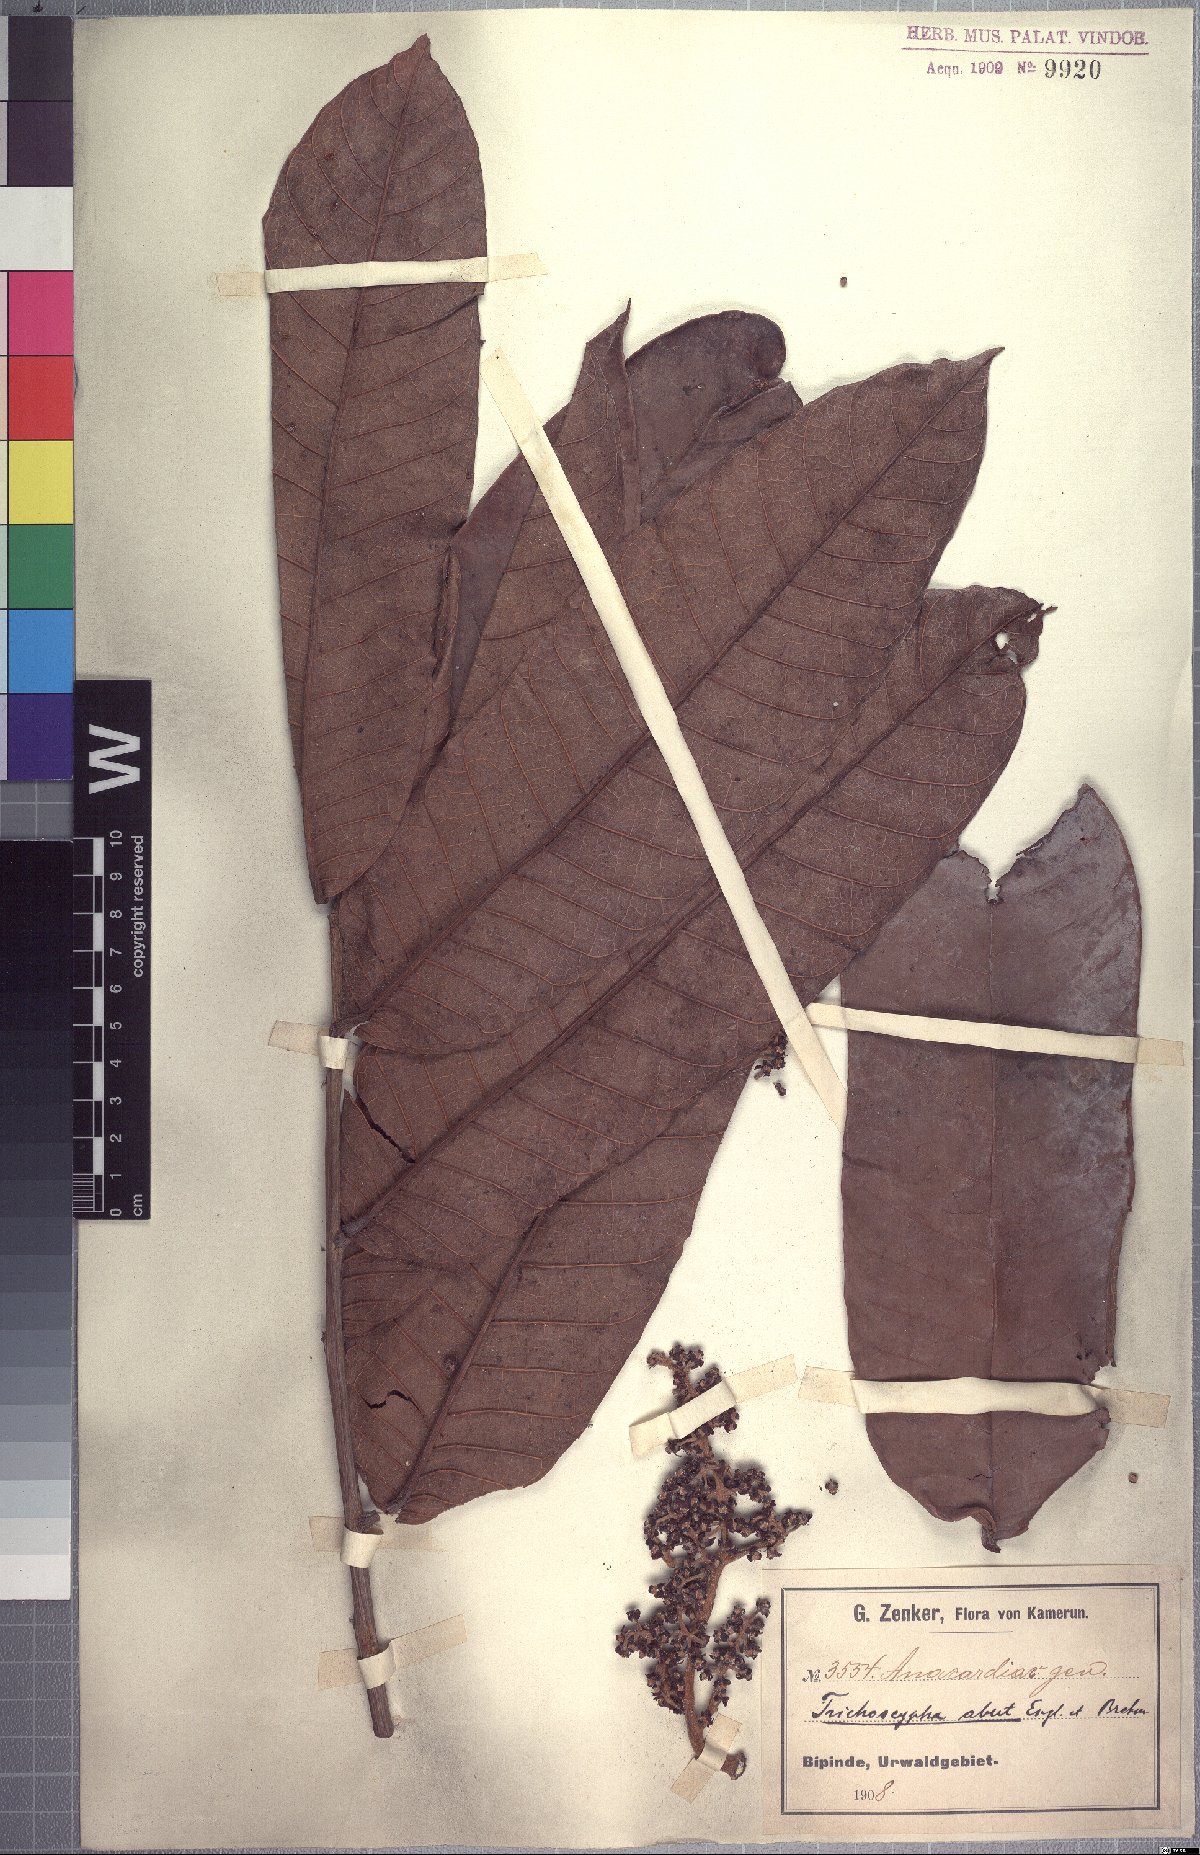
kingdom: Plantae
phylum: Tracheophyta
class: Magnoliopsida
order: Sapindales
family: Anacardiaceae
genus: Trichoscypha
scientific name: Trichoscypha oddonii
